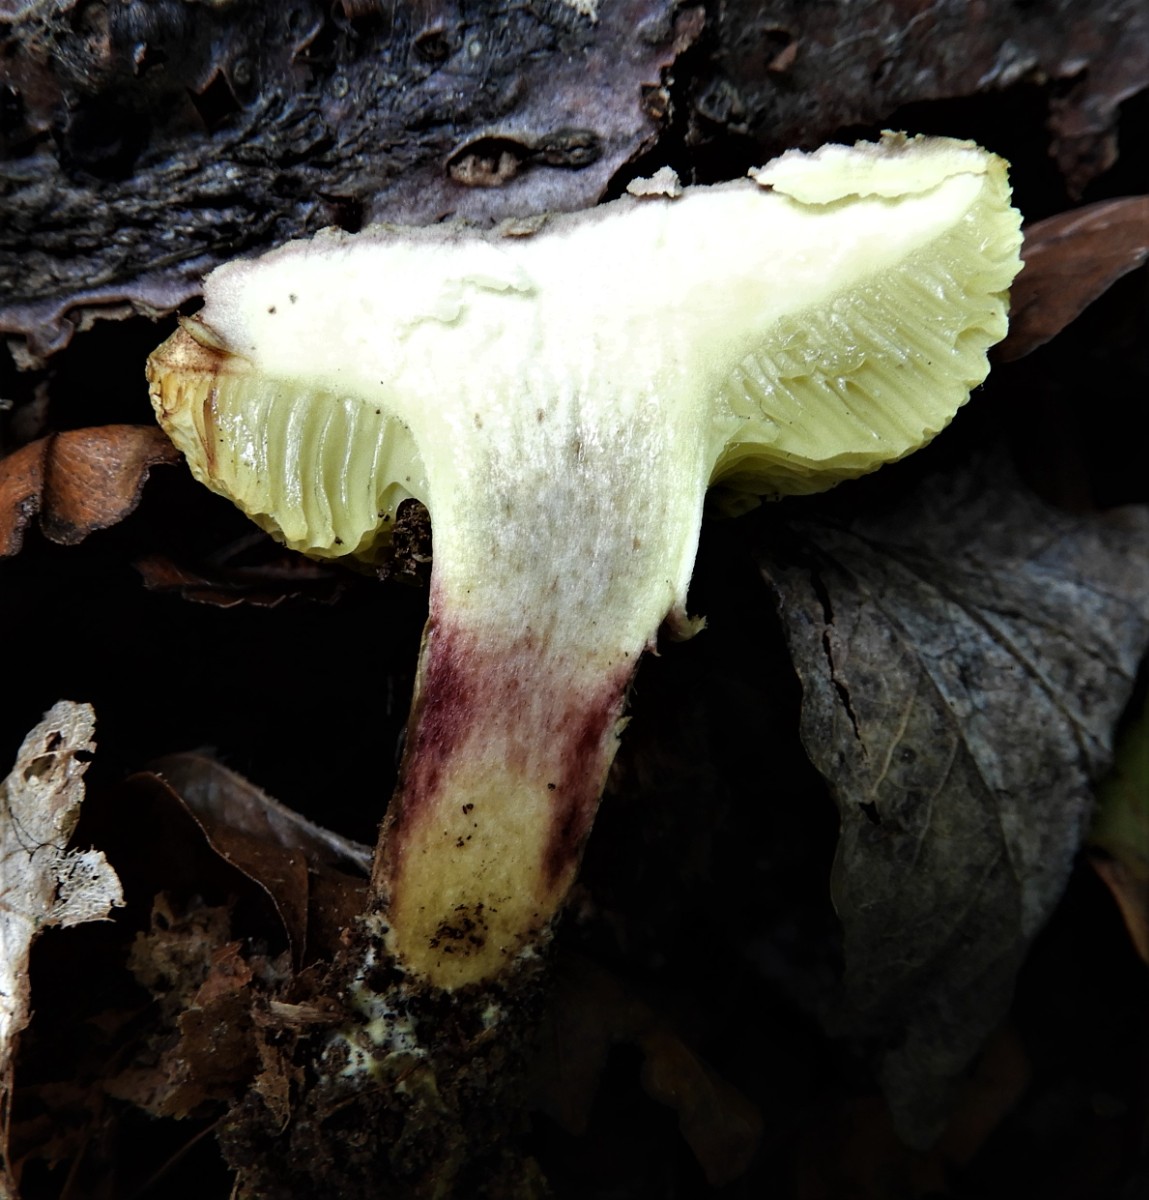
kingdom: Fungi
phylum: Basidiomycota
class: Agaricomycetes
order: Boletales
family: Boletaceae
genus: Xerocomellus
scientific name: Xerocomellus porosporus
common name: hvidsprukken rørhat
